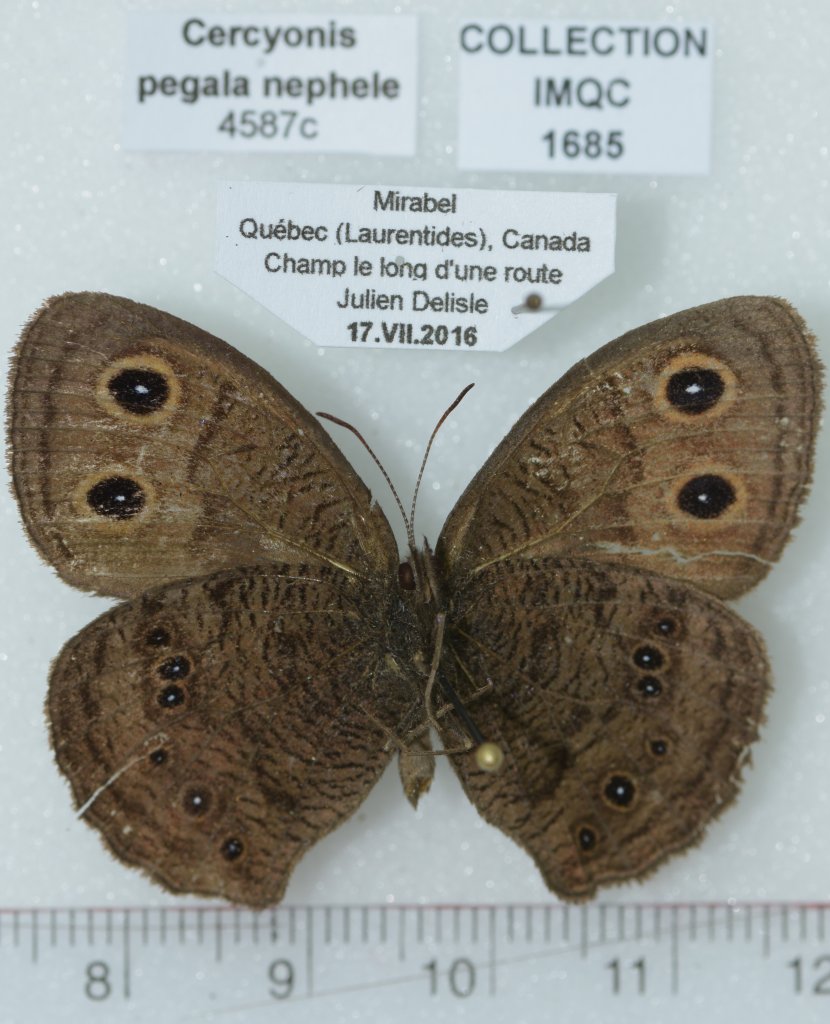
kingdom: Animalia
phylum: Arthropoda
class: Insecta
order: Lepidoptera
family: Nymphalidae
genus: Cercyonis
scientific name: Cercyonis pegala
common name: Common Wood-Nymph
